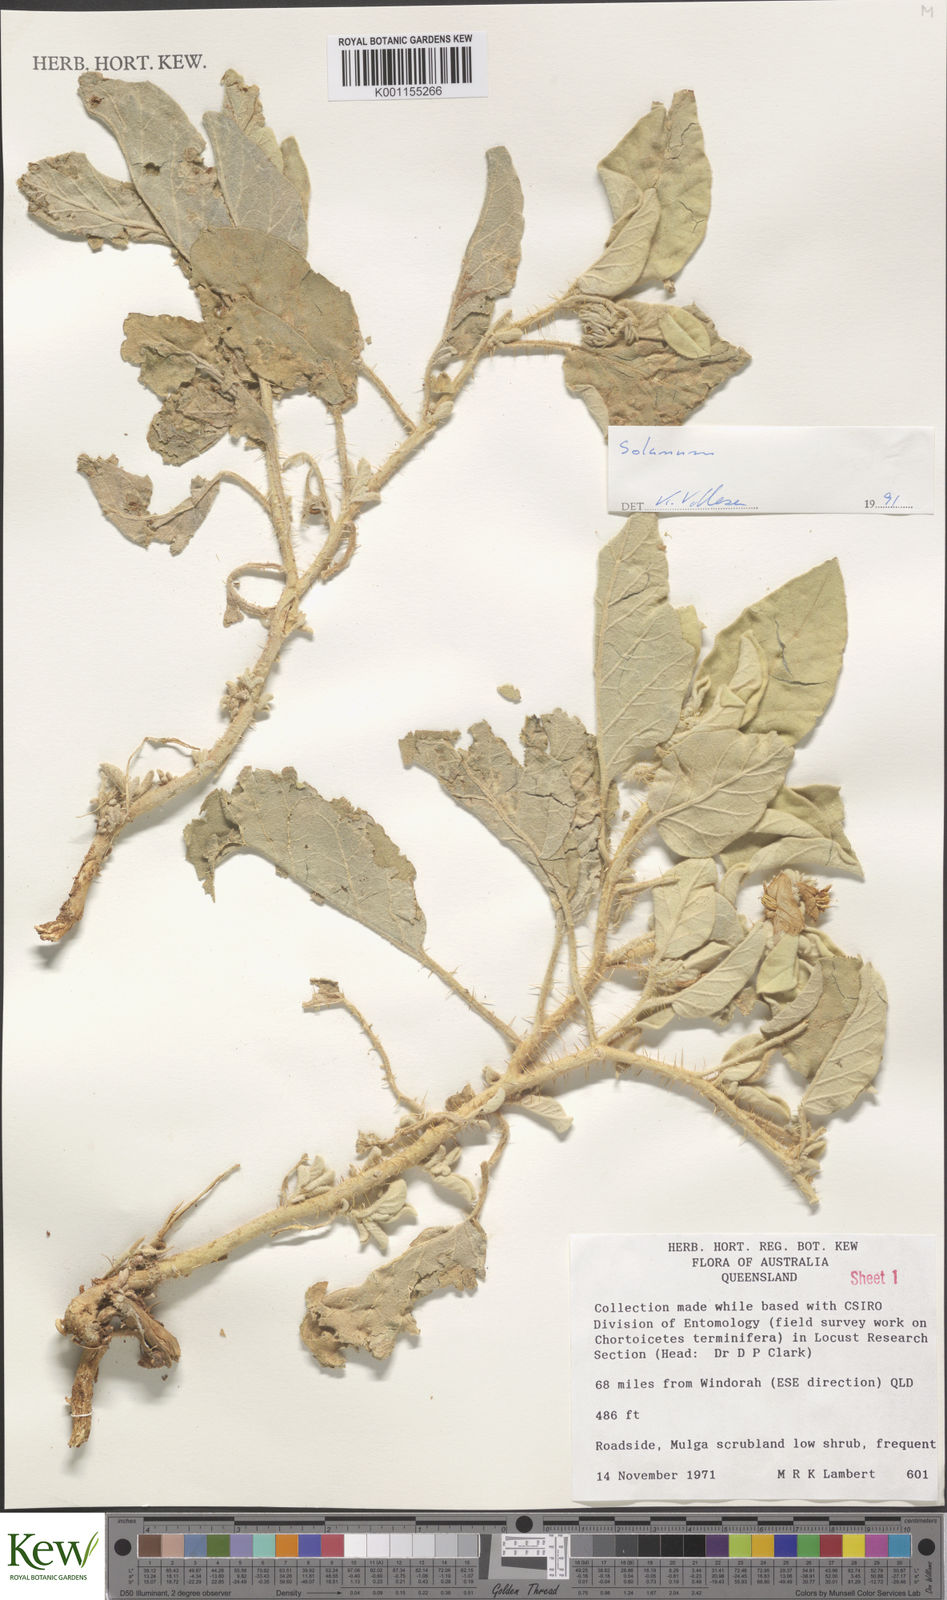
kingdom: Plantae
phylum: Tracheophyta
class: Magnoliopsida
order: Solanales
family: Solanaceae
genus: Solanum
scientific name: Solanum
